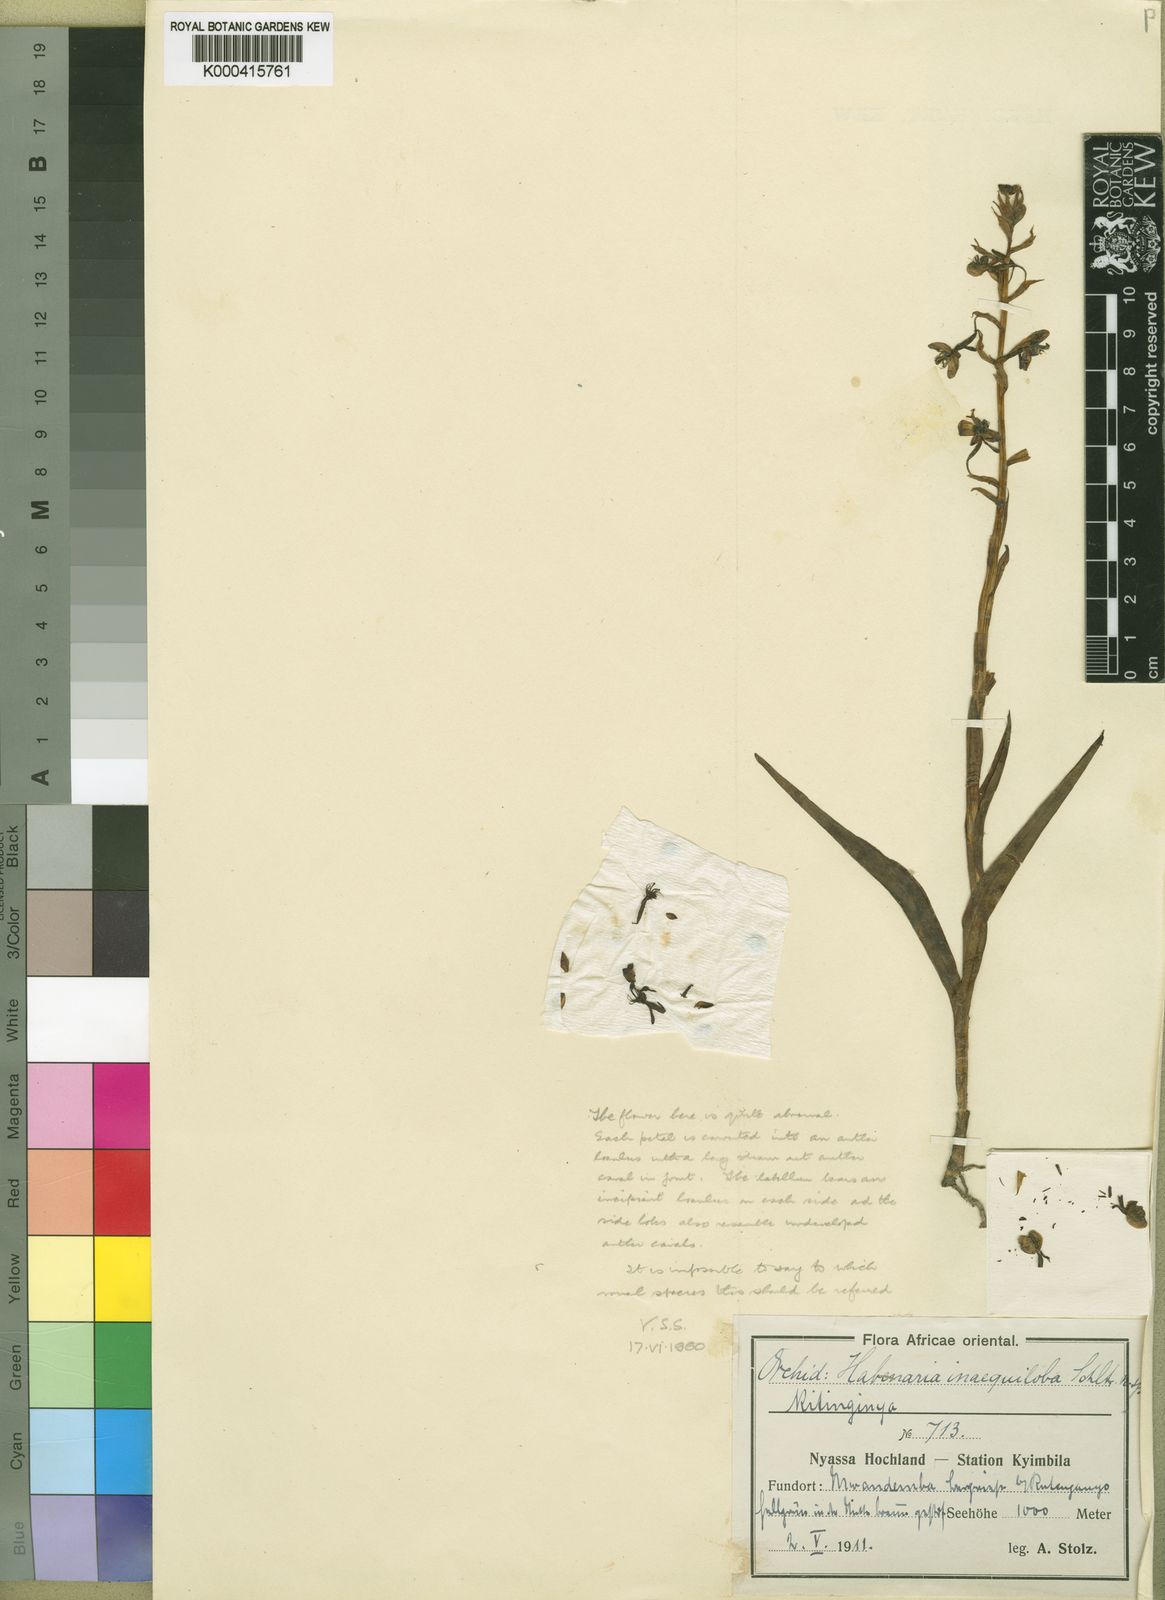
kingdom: Plantae
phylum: Tracheophyta
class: Liliopsida
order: Asparagales
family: Orchidaceae
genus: Habenaria
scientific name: Habenaria inaequiloba
